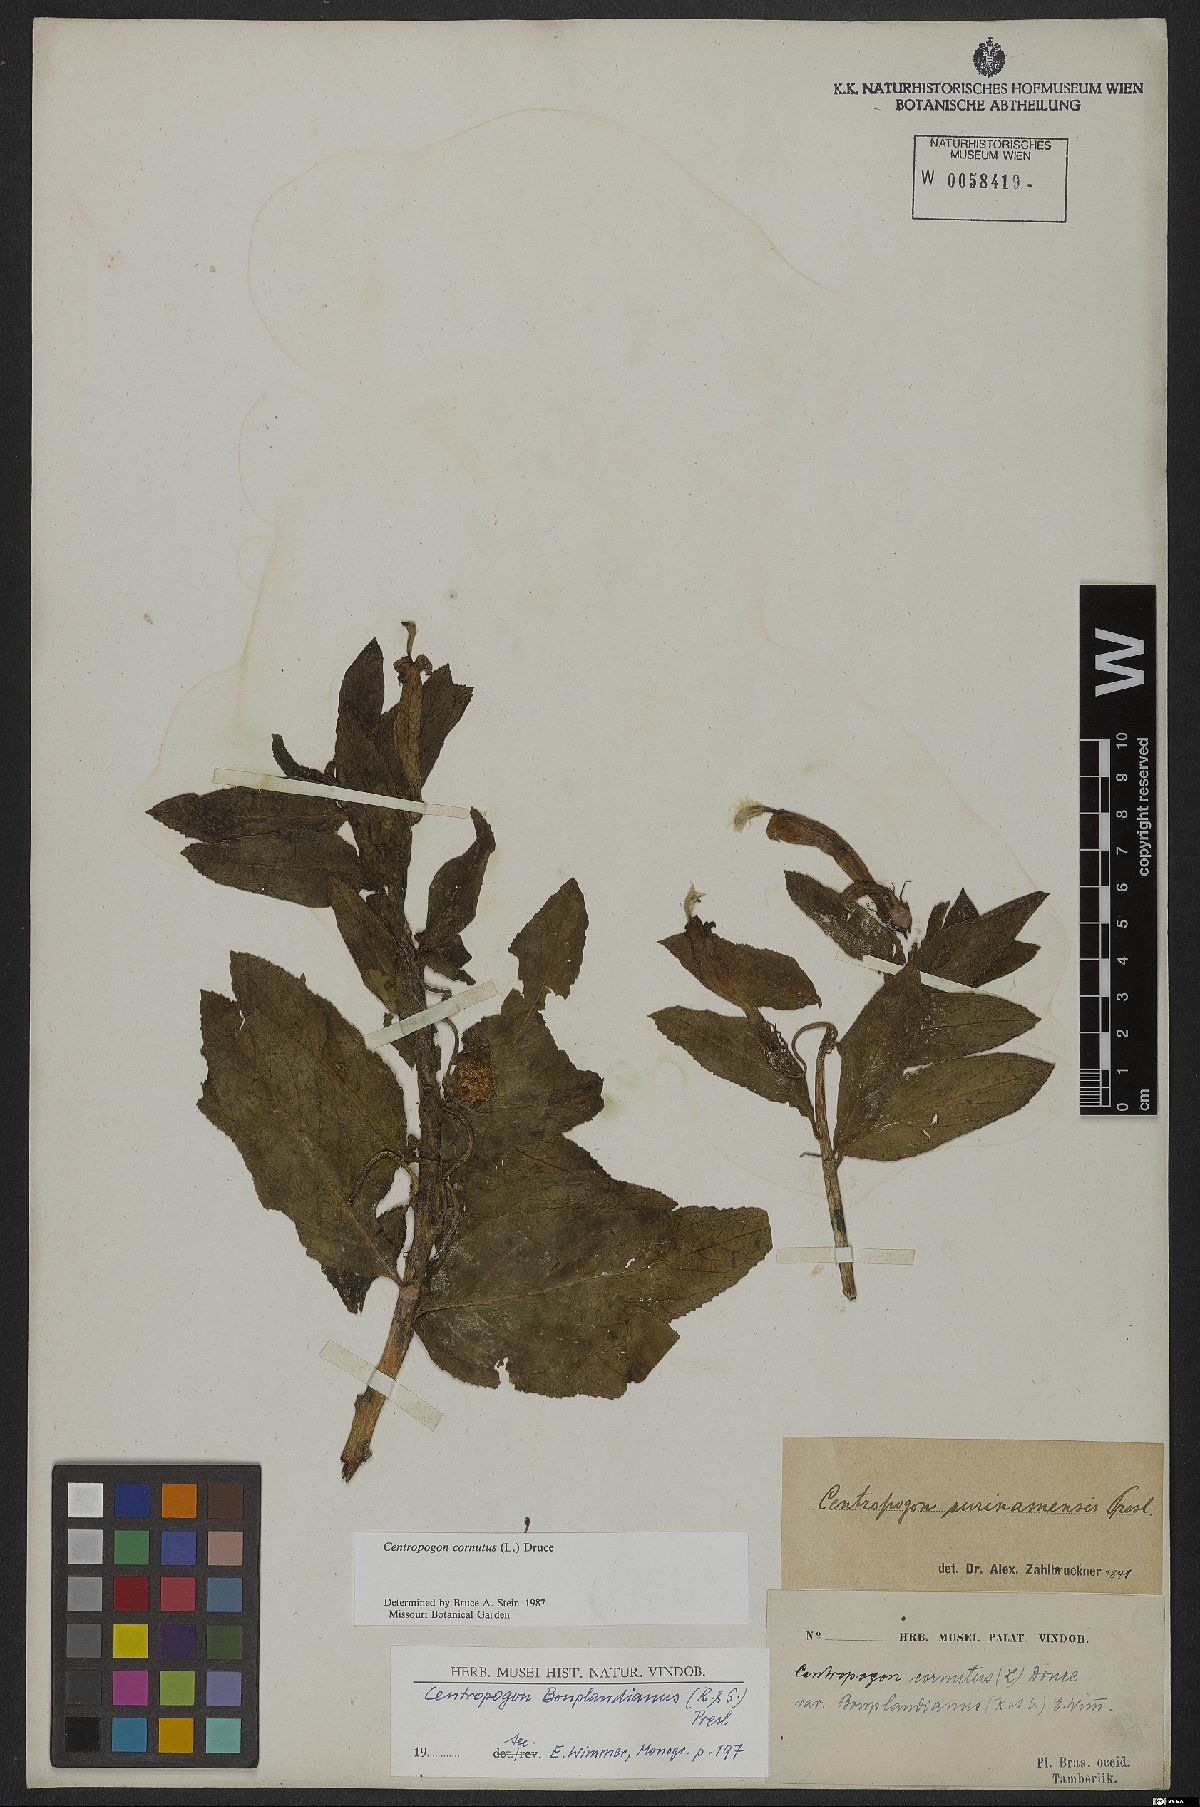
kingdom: Plantae
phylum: Tracheophyta
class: Magnoliopsida
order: Asterales
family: Campanulaceae
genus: Centropogon
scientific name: Centropogon cornutus
